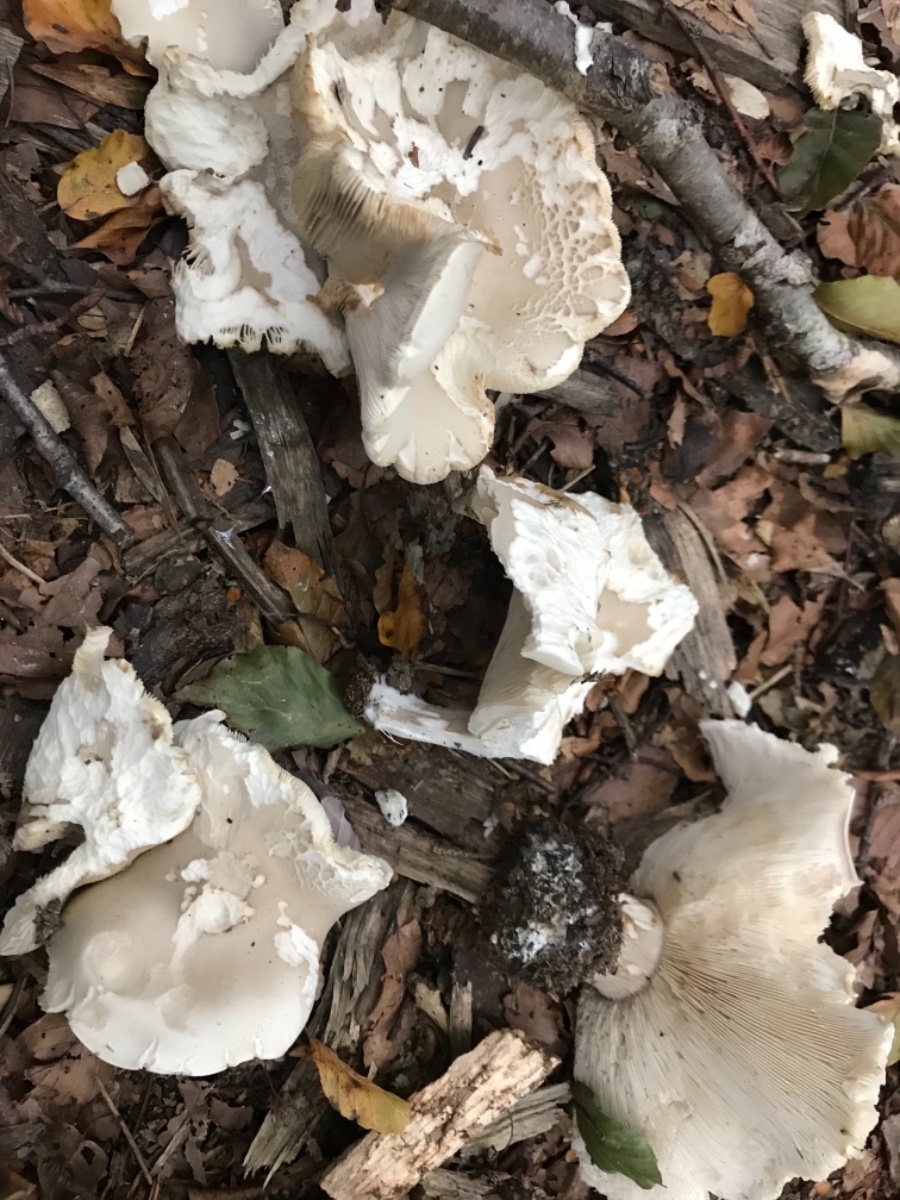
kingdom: Fungi
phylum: Basidiomycota
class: Agaricomycetes
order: Agaricales
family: Tricholomataceae
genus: Melanoleuca
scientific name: Melanoleuca
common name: munkehat
